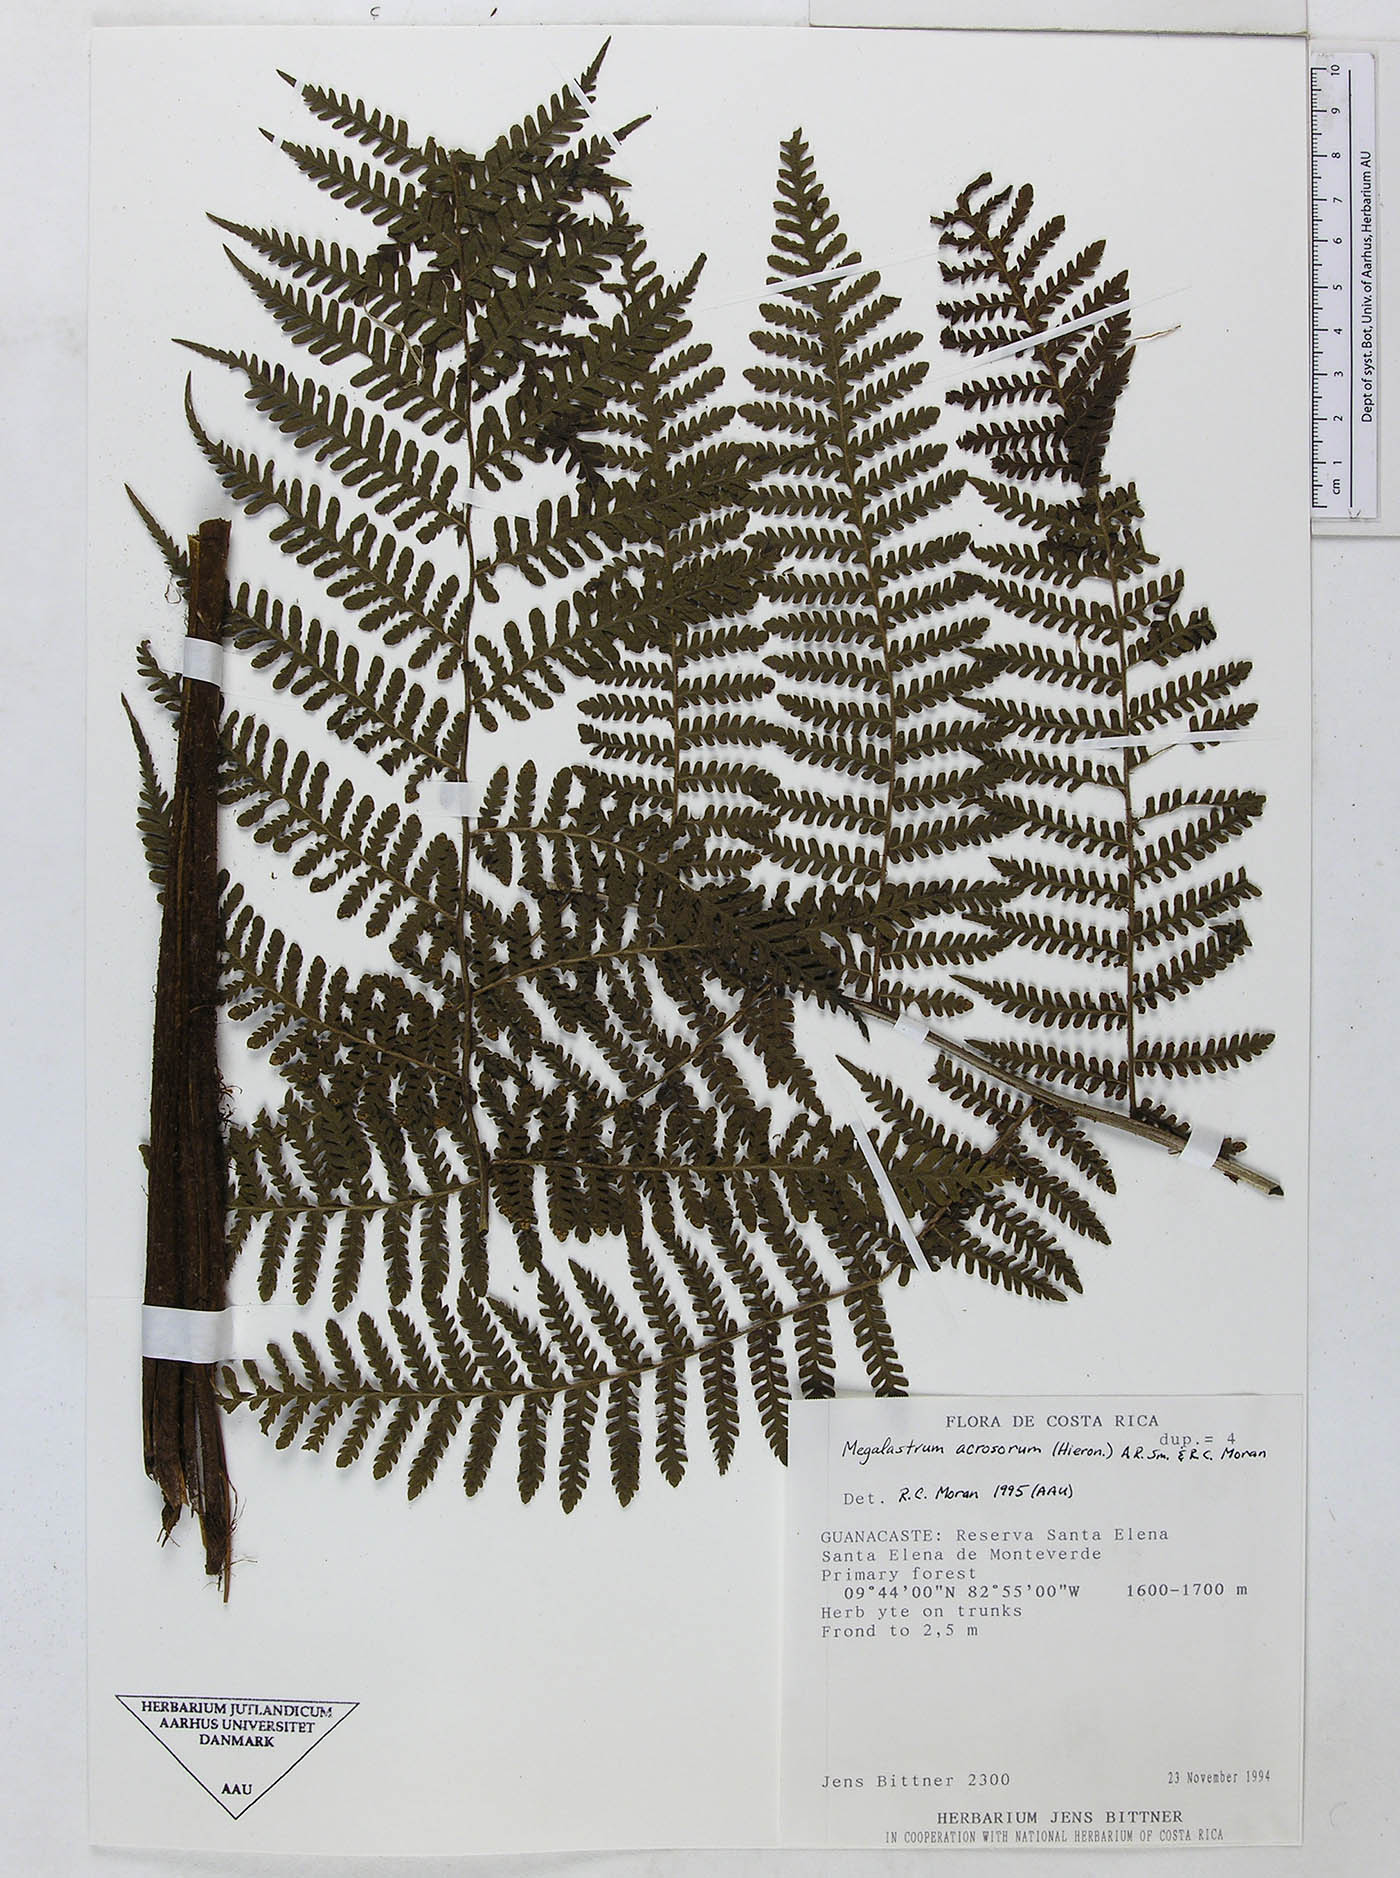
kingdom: Plantae
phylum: Tracheophyta
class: Polypodiopsida
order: Polypodiales
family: Dryopteridaceae
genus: Megalastrum
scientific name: Megalastrum apicale
